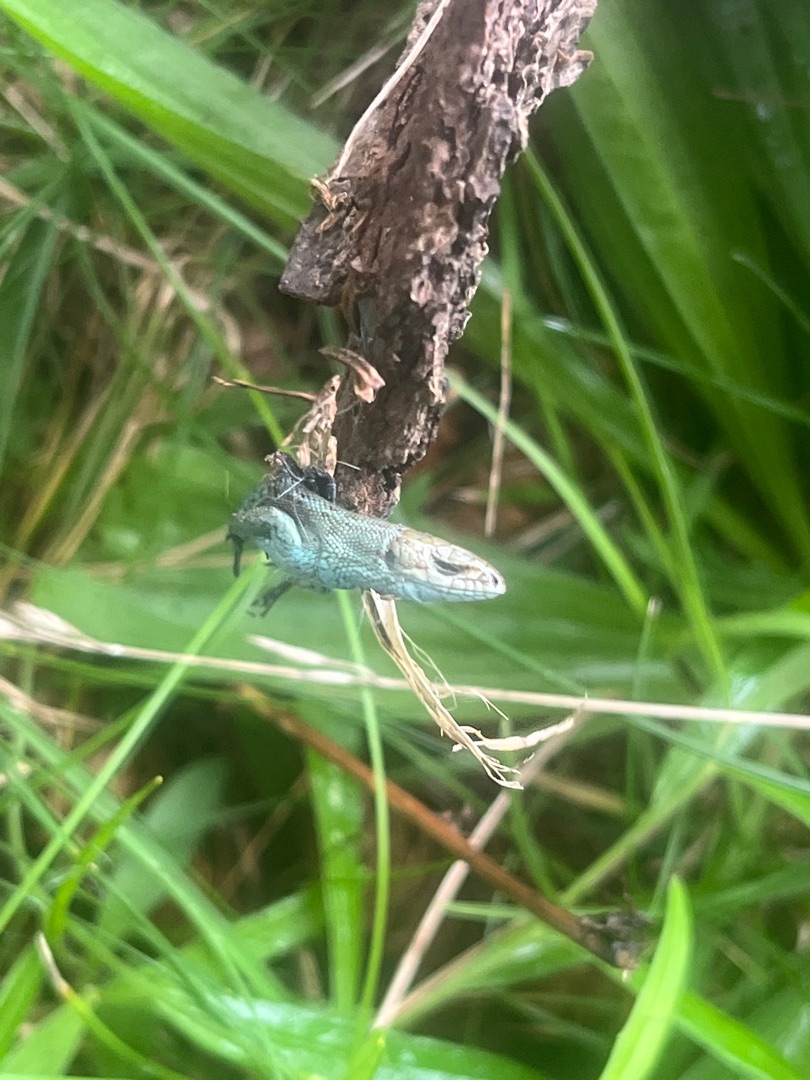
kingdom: Animalia
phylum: Chordata
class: Squamata
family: Lacertidae
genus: Zootoca
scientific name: Zootoca vivipara
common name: Skovfirben
